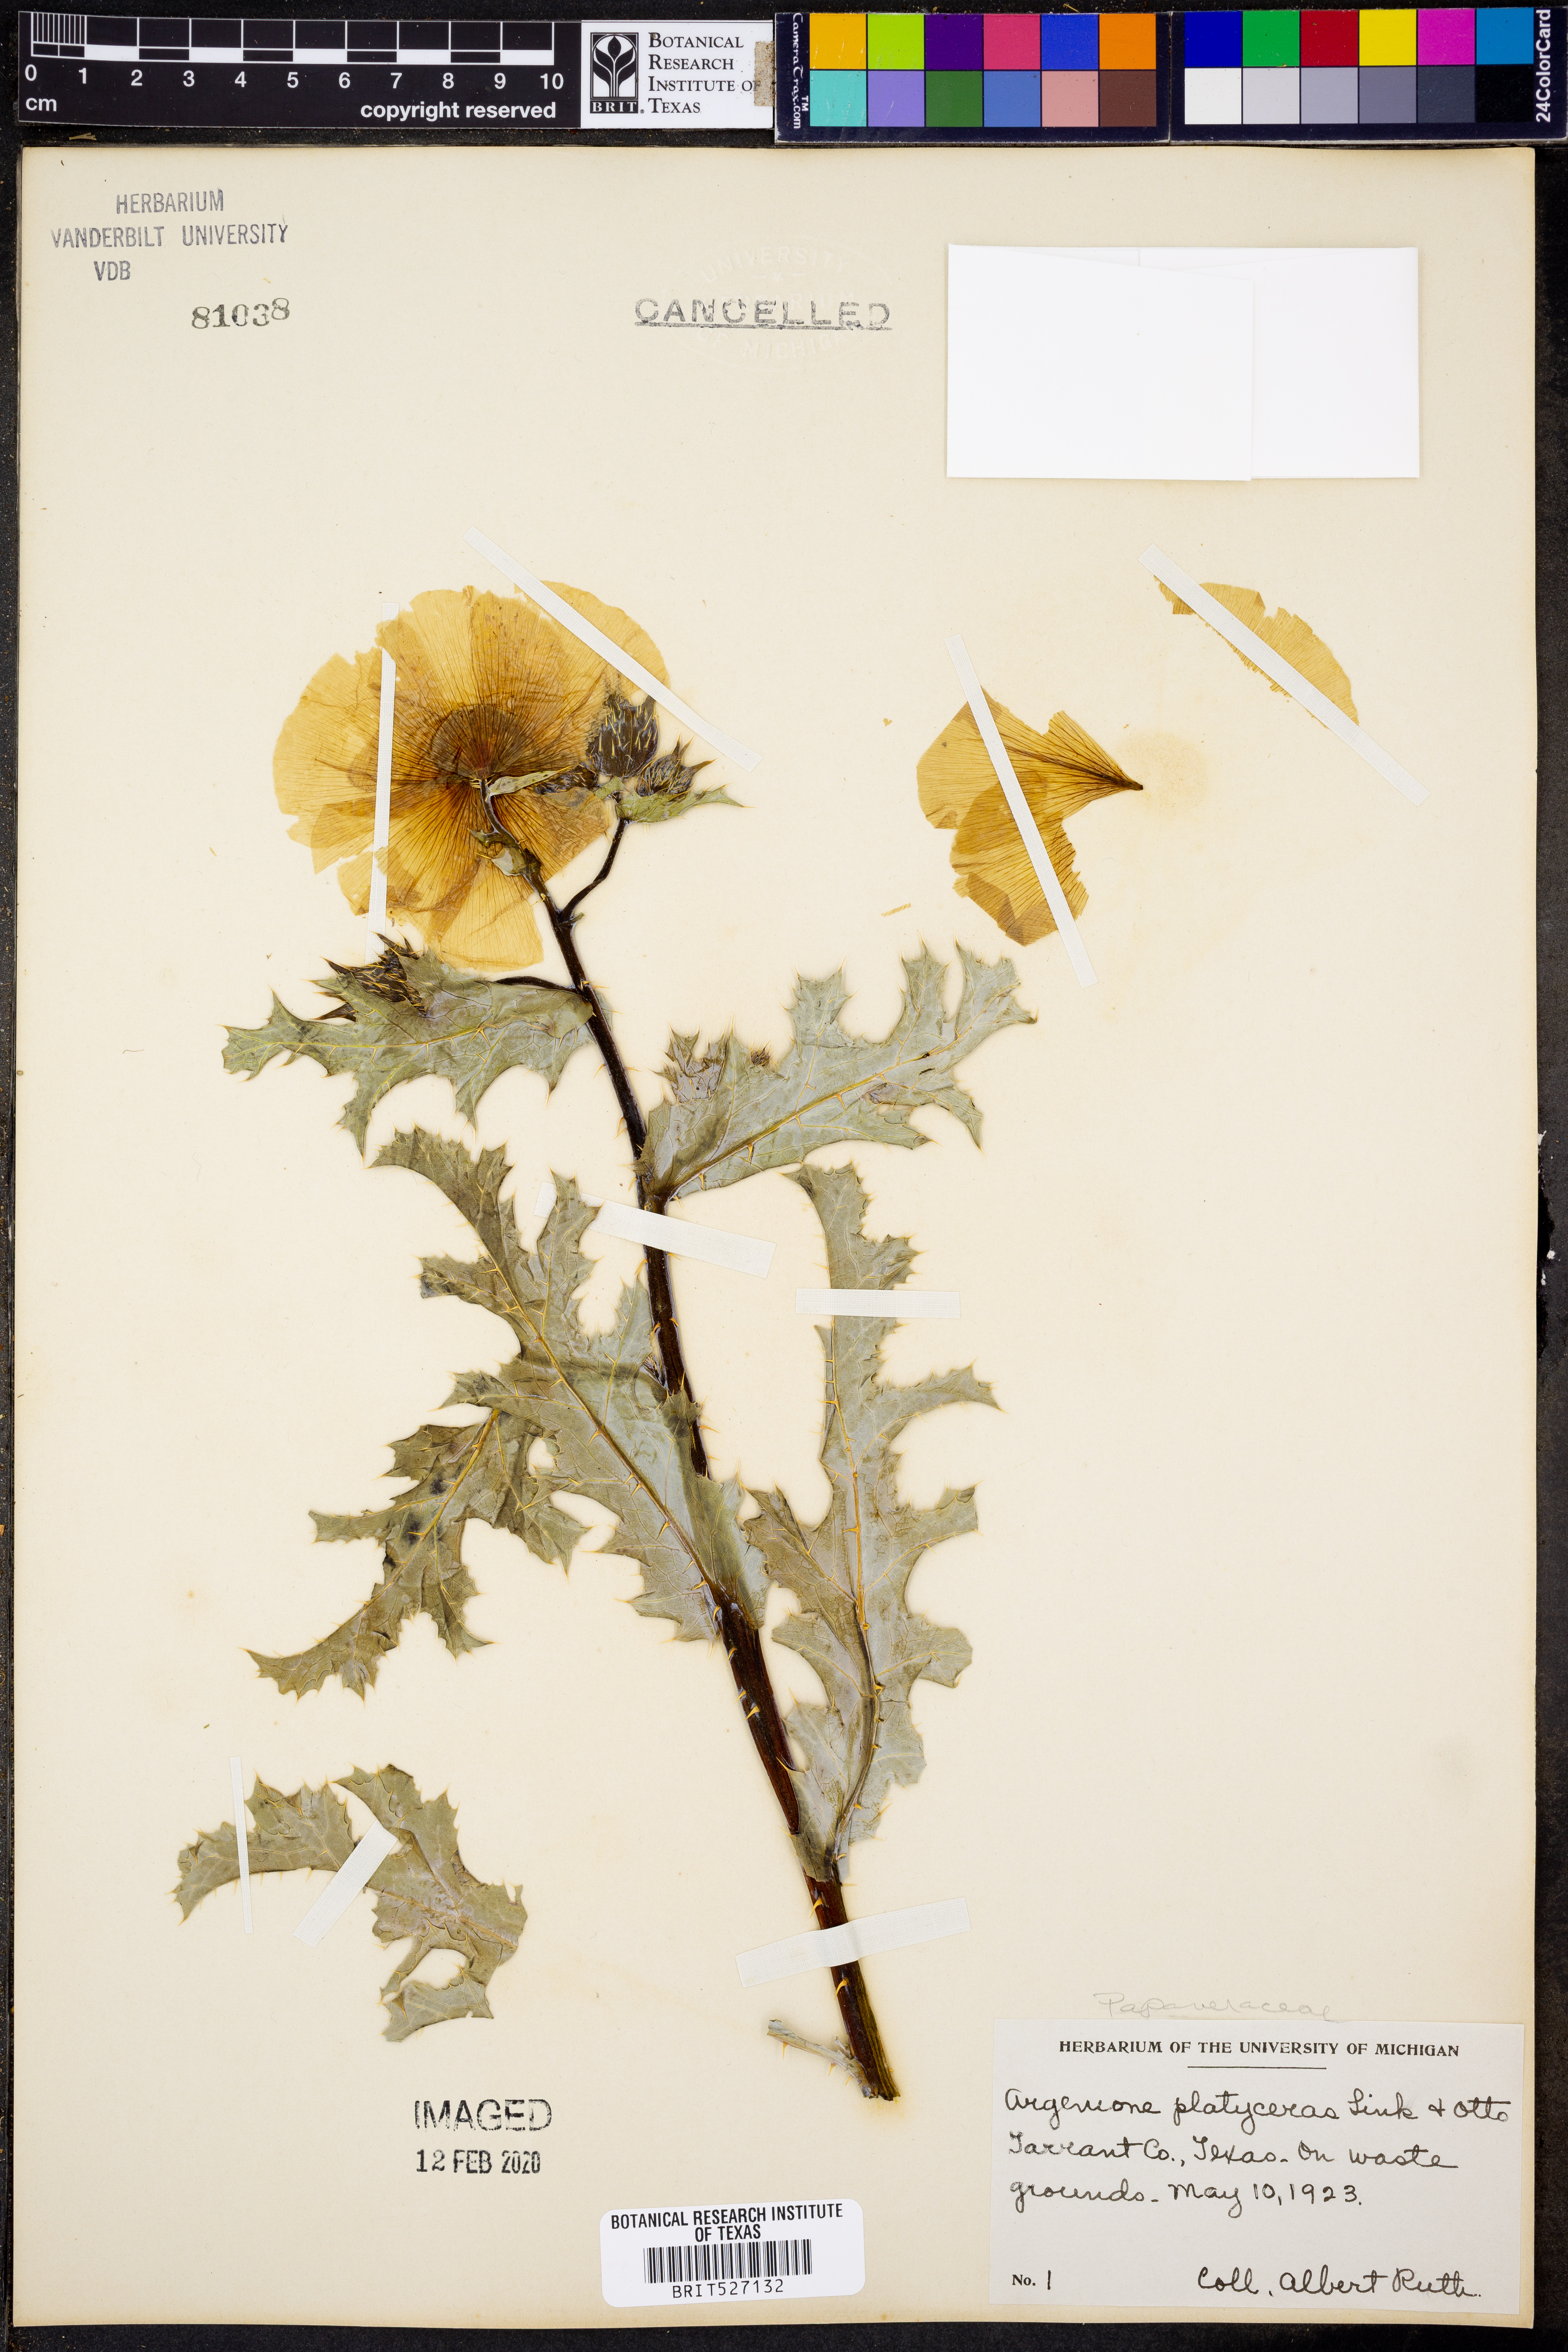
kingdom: Plantae
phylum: Tracheophyta
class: Magnoliopsida
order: Ranunculales
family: Papaveraceae
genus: Argemone
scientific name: Argemone platyceras
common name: Crested-poppy
